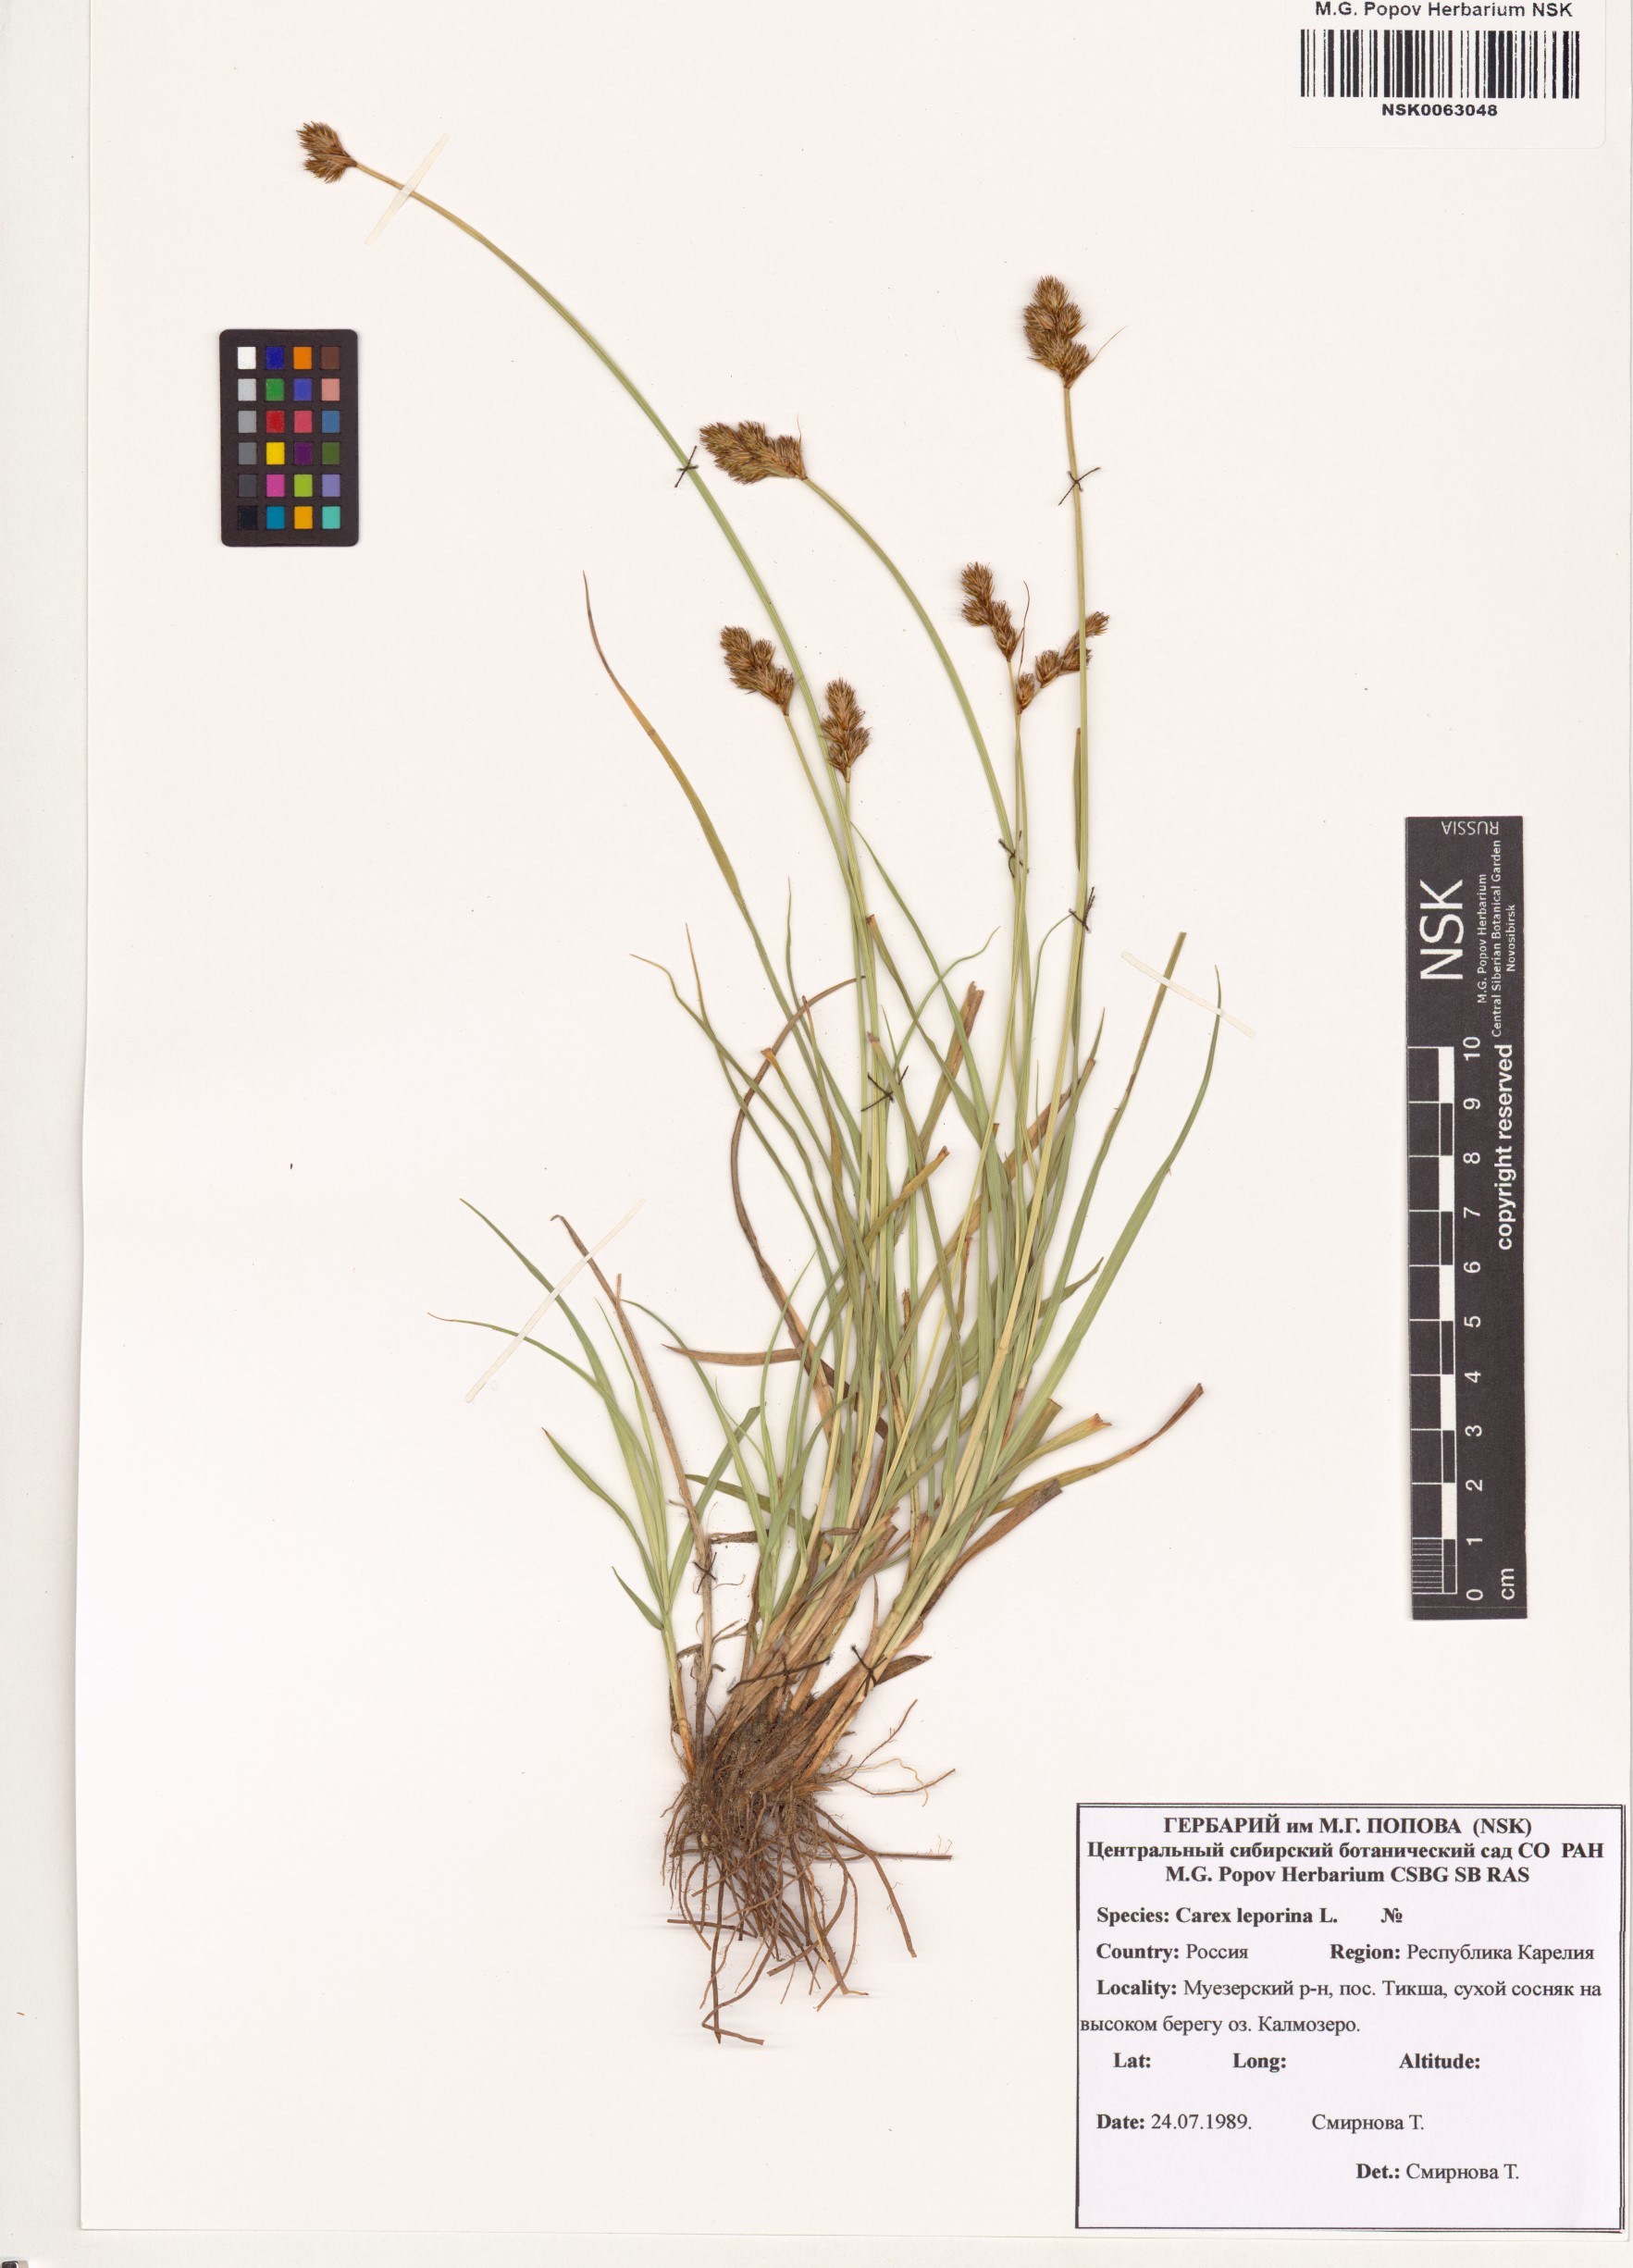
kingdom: Plantae
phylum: Tracheophyta
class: Liliopsida
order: Poales
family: Cyperaceae
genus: Carex
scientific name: Carex leporina
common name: Oval sedge
